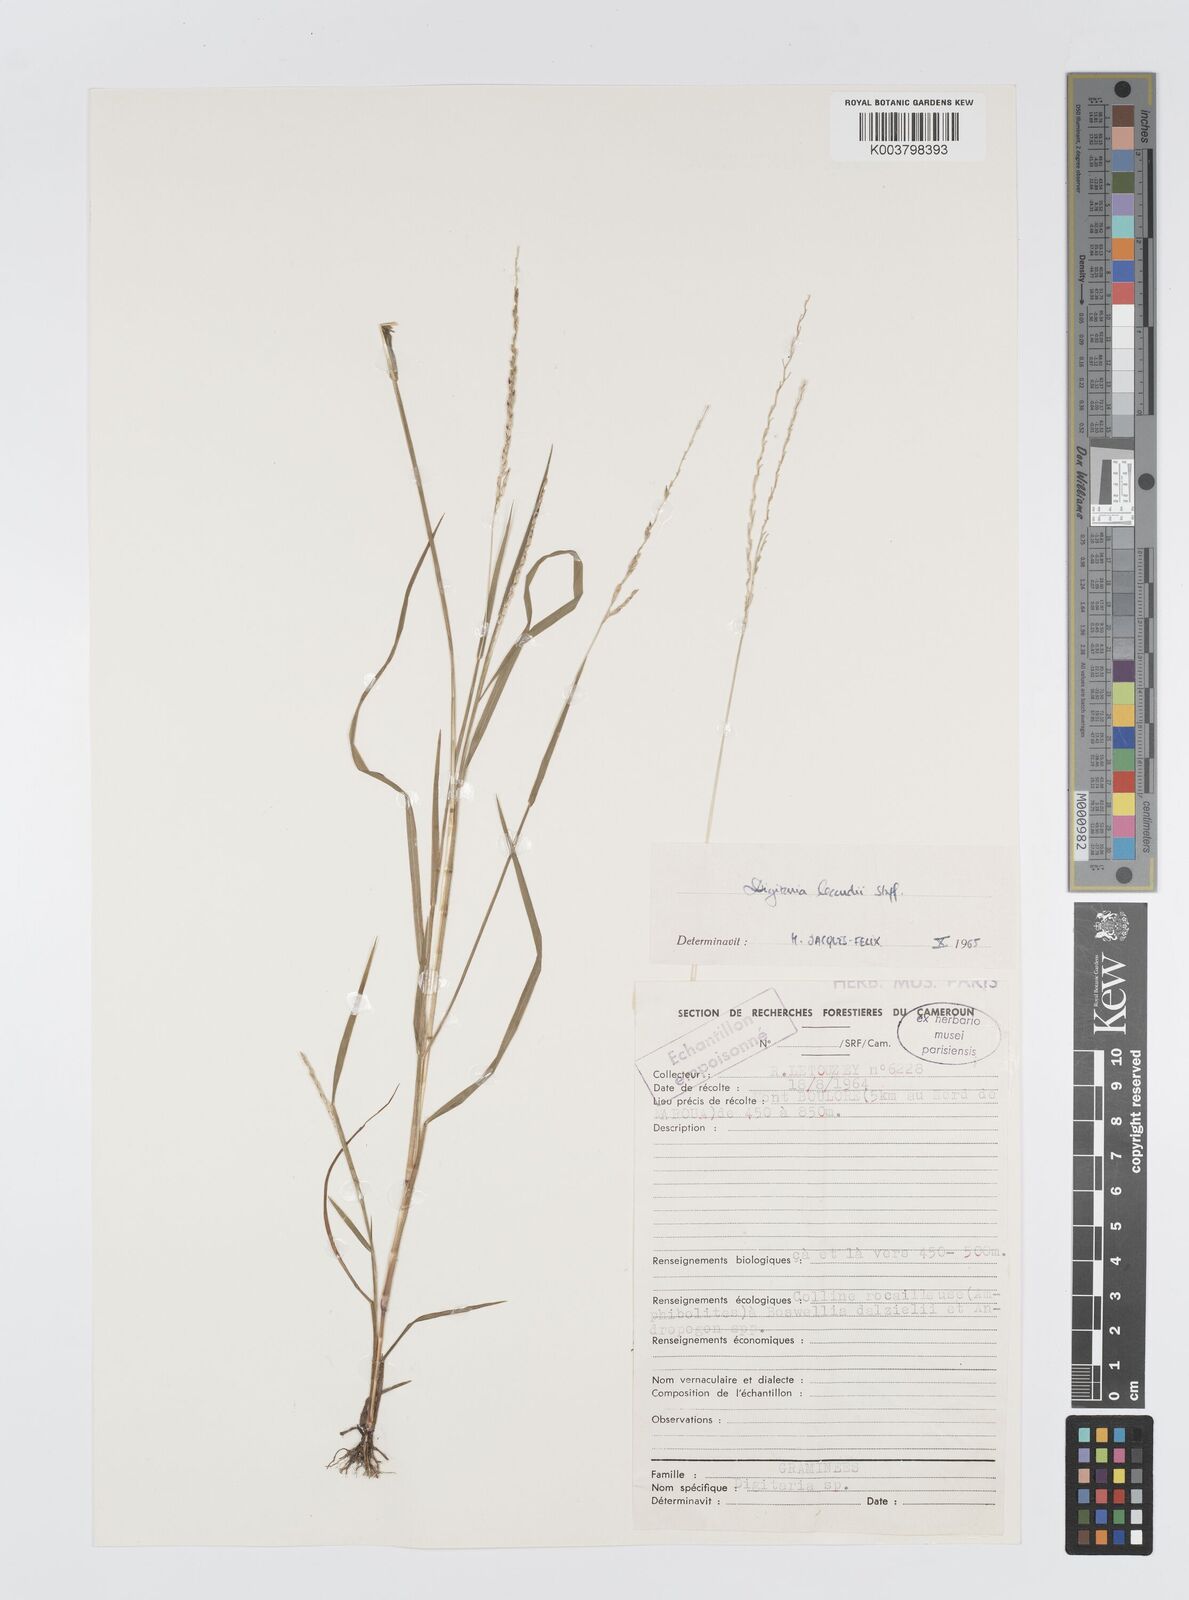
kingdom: Plantae
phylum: Tracheophyta
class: Liliopsida
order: Poales
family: Poaceae
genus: Digitaria
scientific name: Digitaria argillacea
